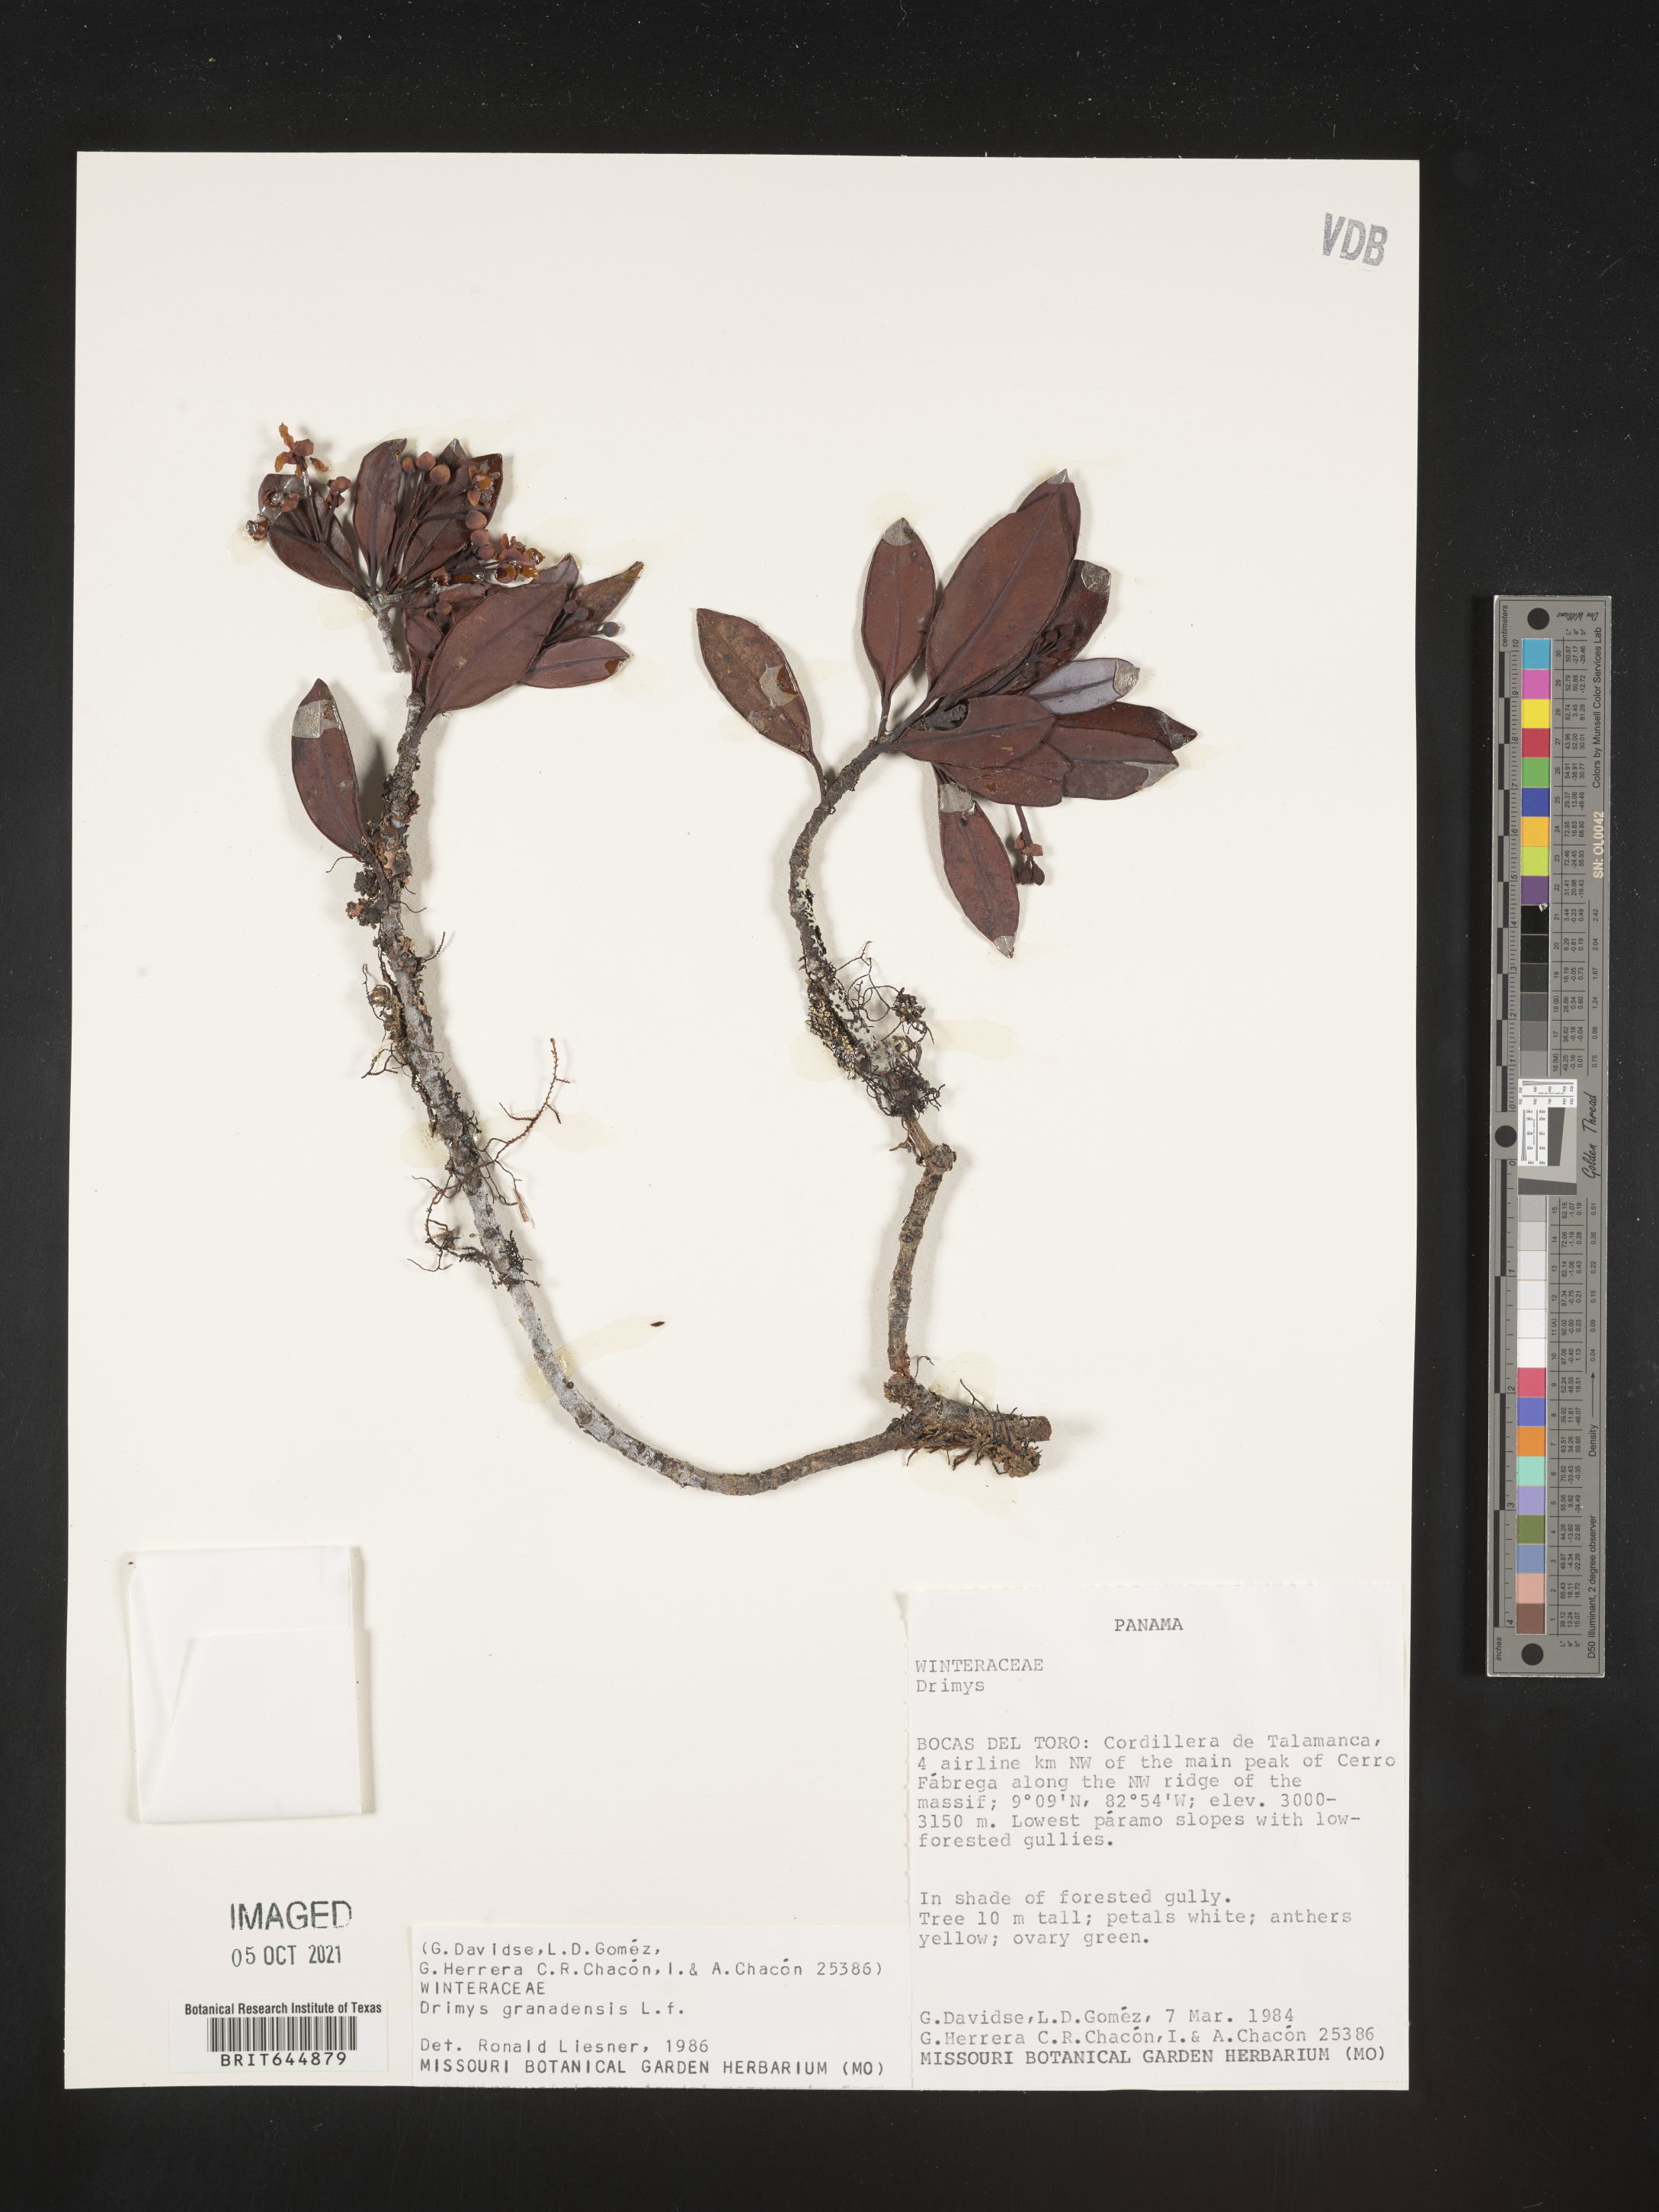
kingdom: Plantae
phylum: Tracheophyta
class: Magnoliopsida
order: Canellales
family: Winteraceae
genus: Drimys
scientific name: Drimys
